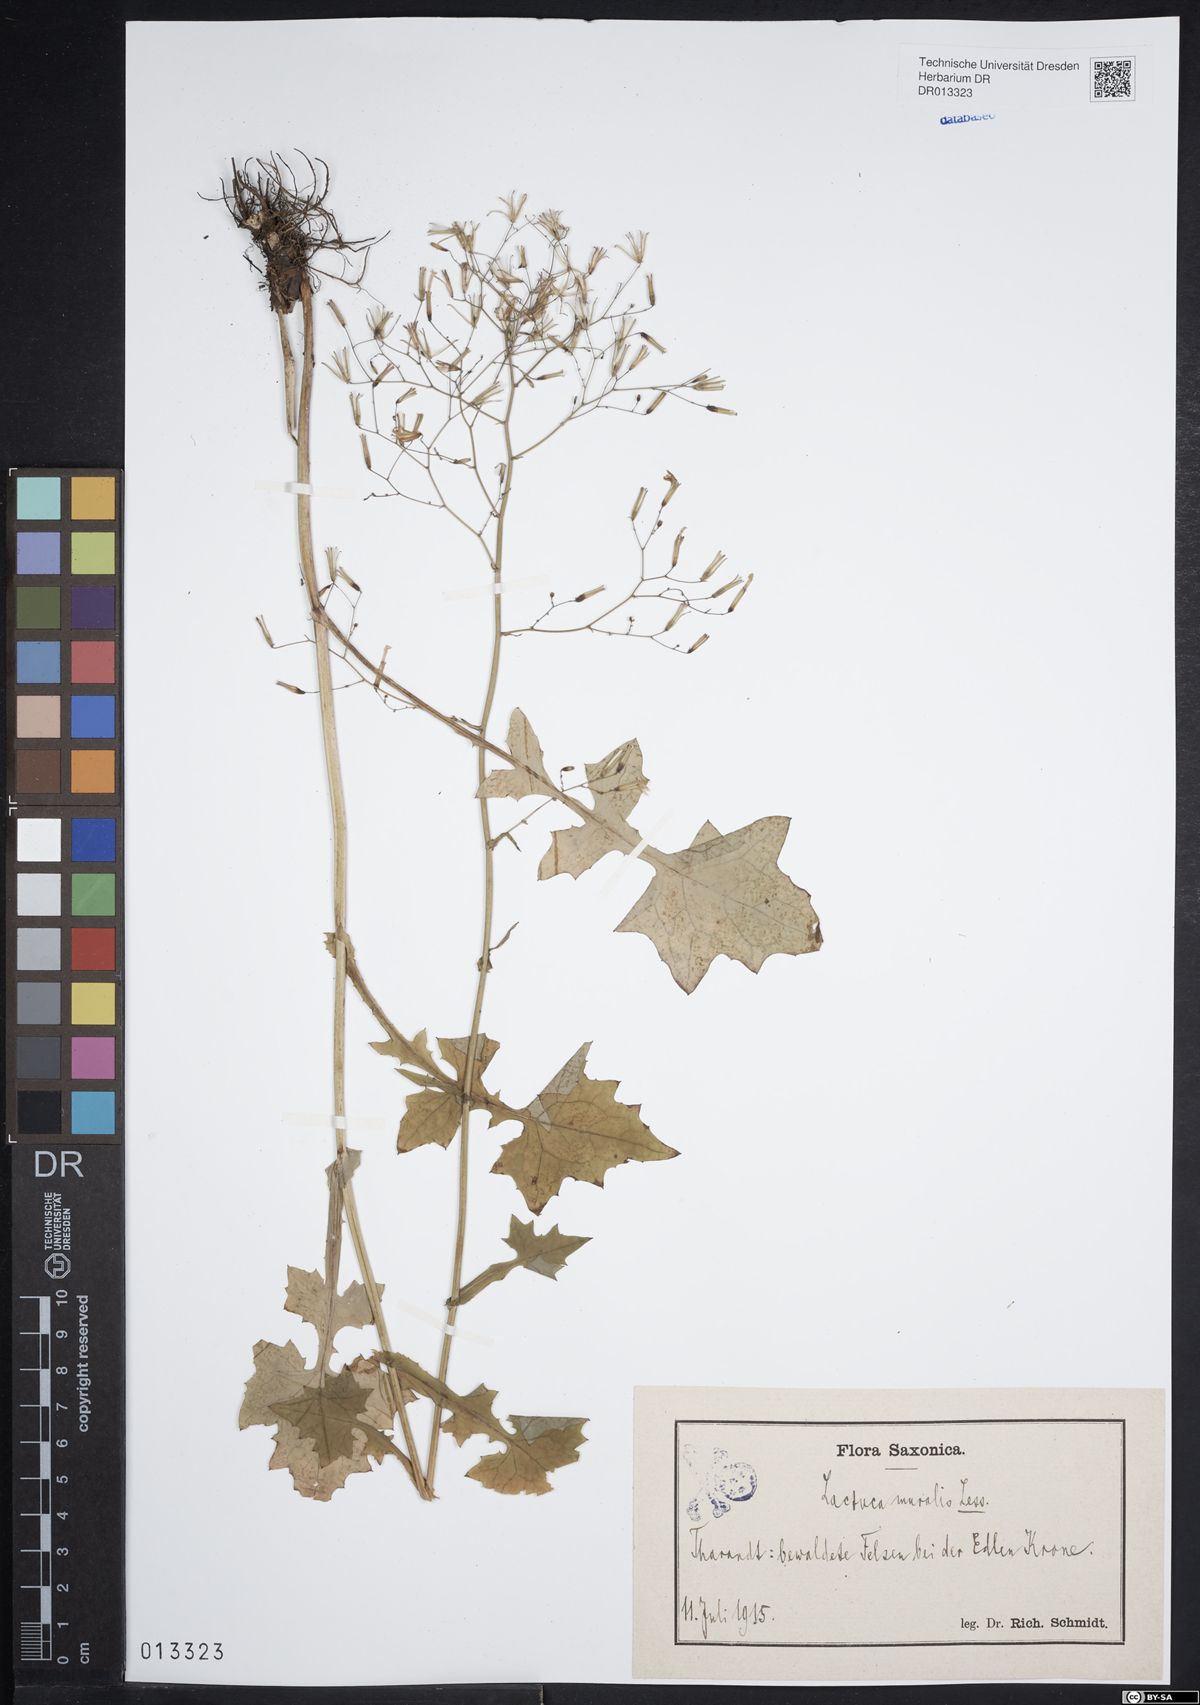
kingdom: Plantae
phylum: Tracheophyta
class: Magnoliopsida
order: Asterales
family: Asteraceae
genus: Mycelis
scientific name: Mycelis muralis
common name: Wall lettuce
